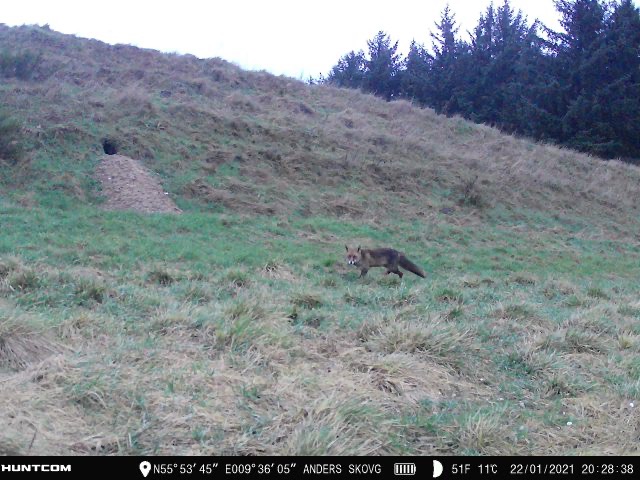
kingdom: Animalia
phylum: Chordata
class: Mammalia
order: Carnivora
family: Canidae
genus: Vulpes
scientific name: Vulpes vulpes
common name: Ræv
